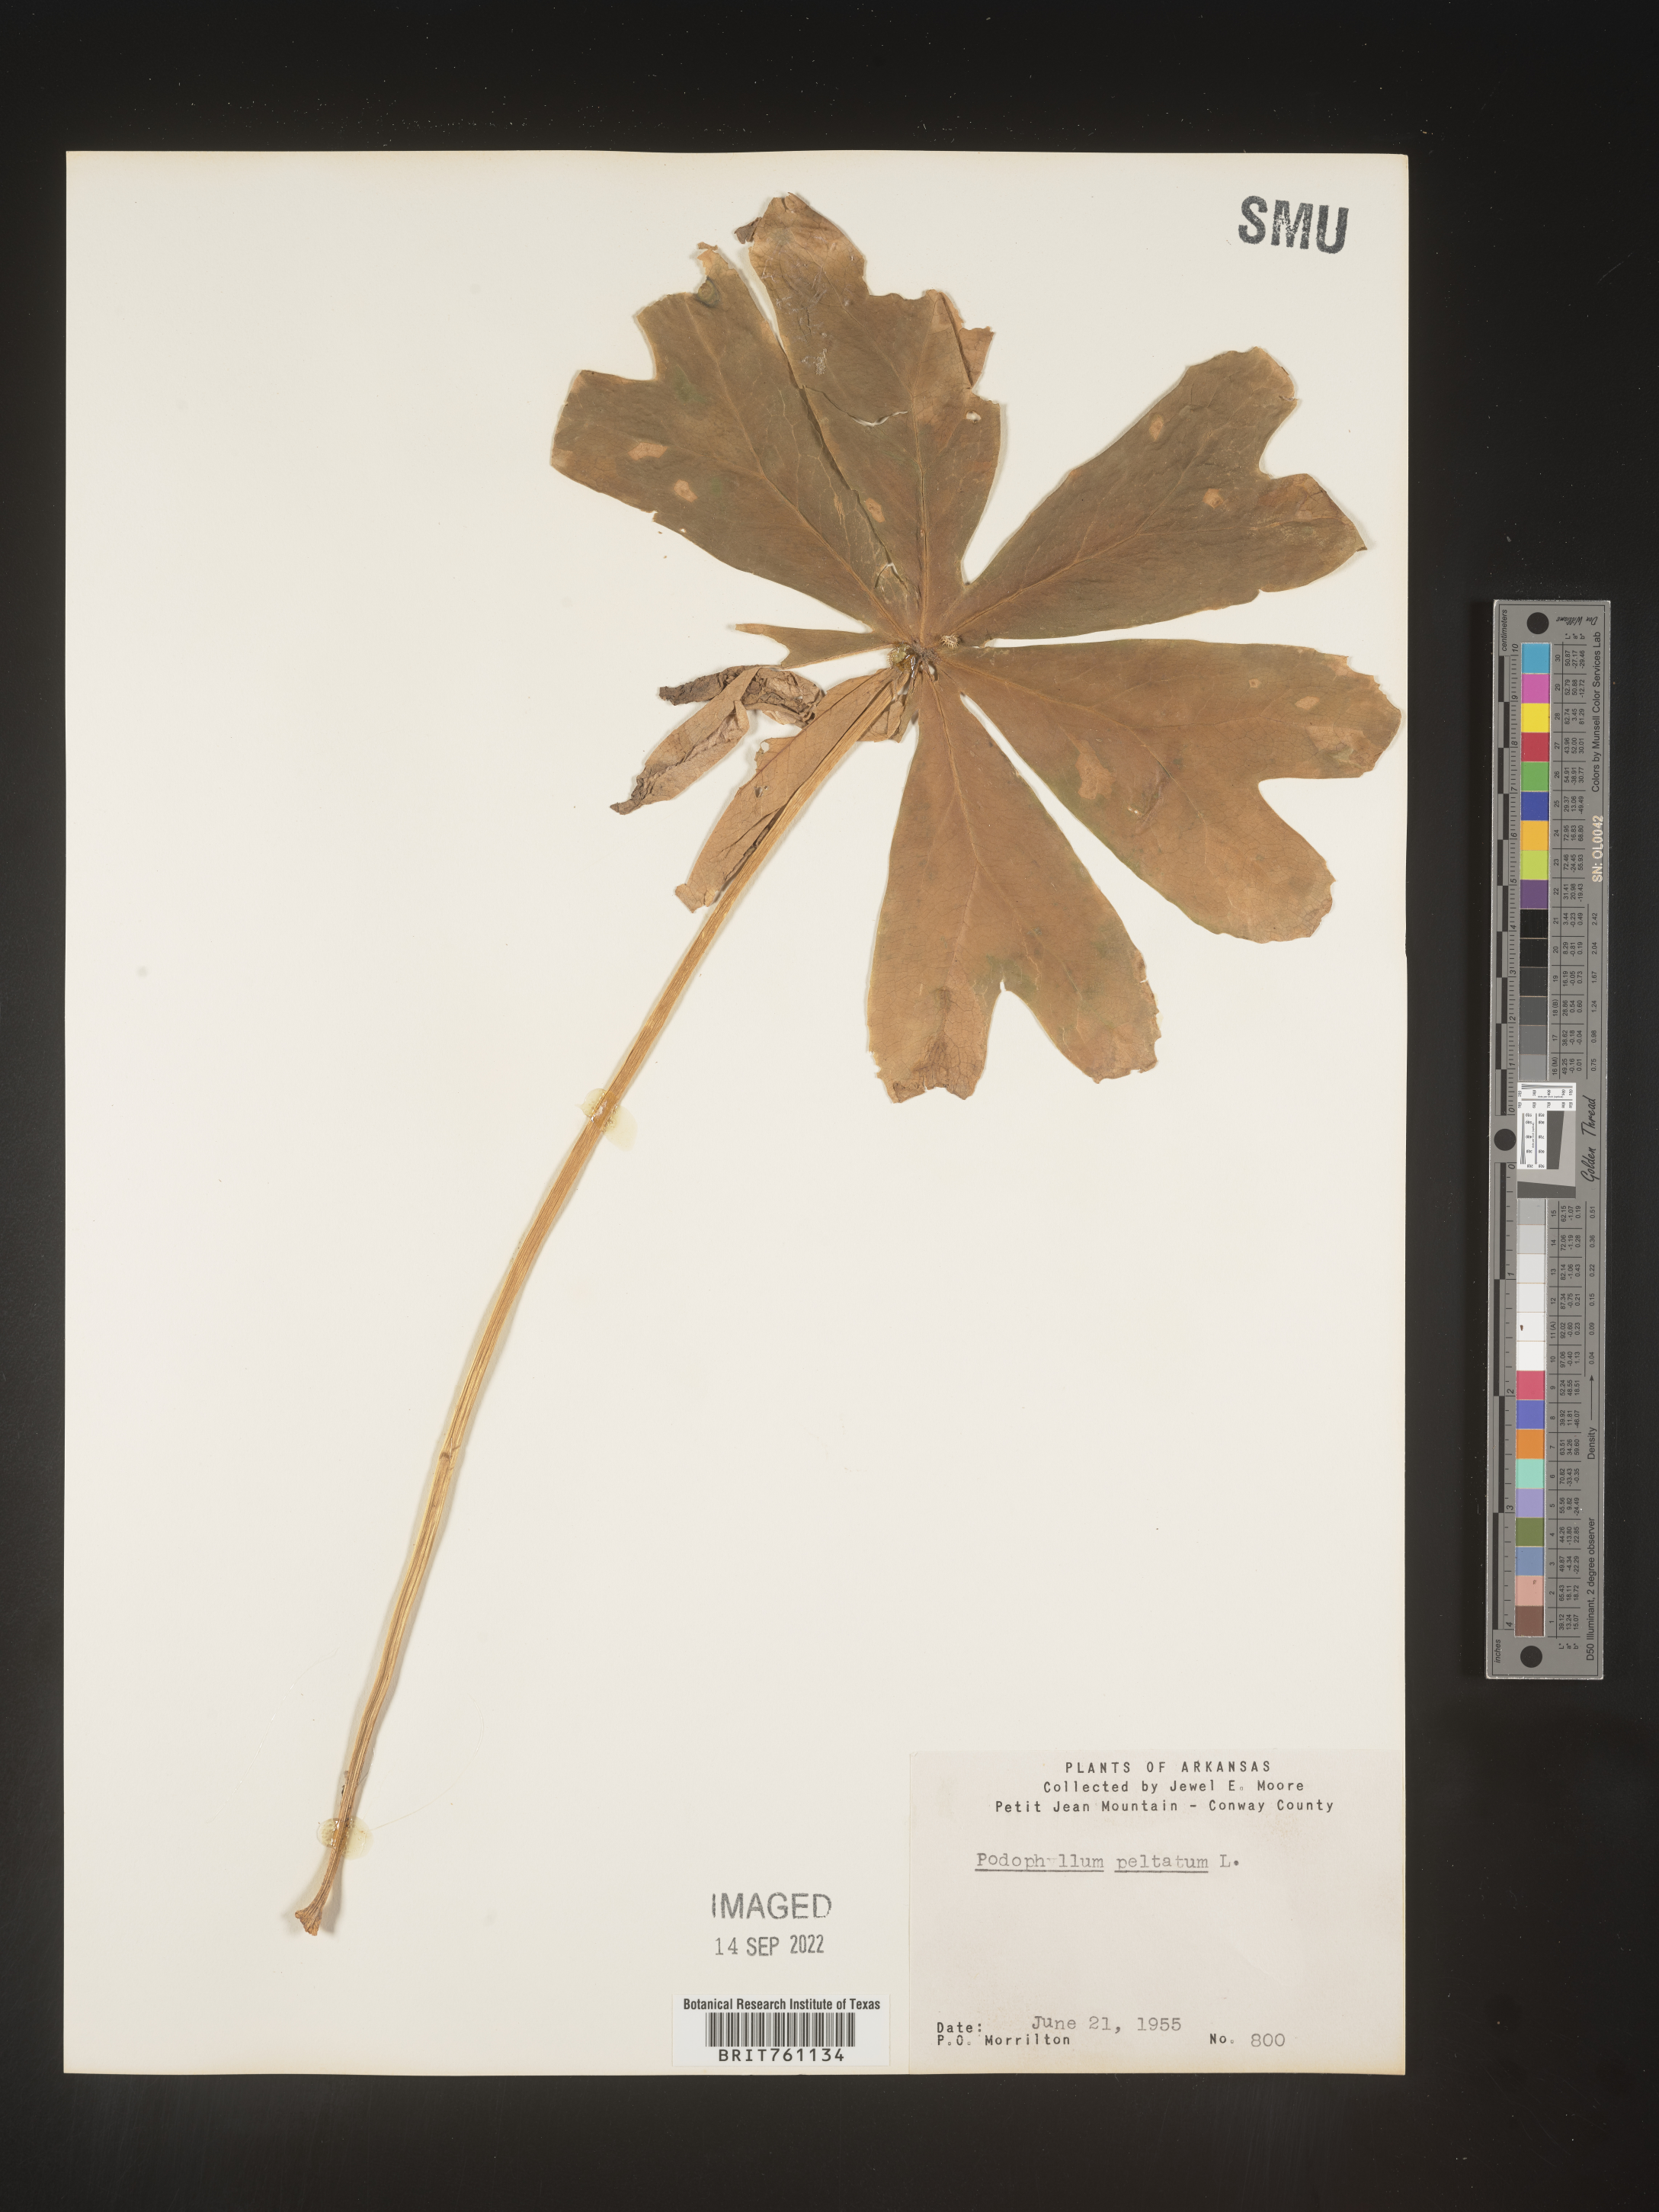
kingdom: Plantae
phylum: Tracheophyta
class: Magnoliopsida
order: Ranunculales
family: Berberidaceae
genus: Podophyllum
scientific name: Podophyllum peltatum
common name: Wild mandrake
